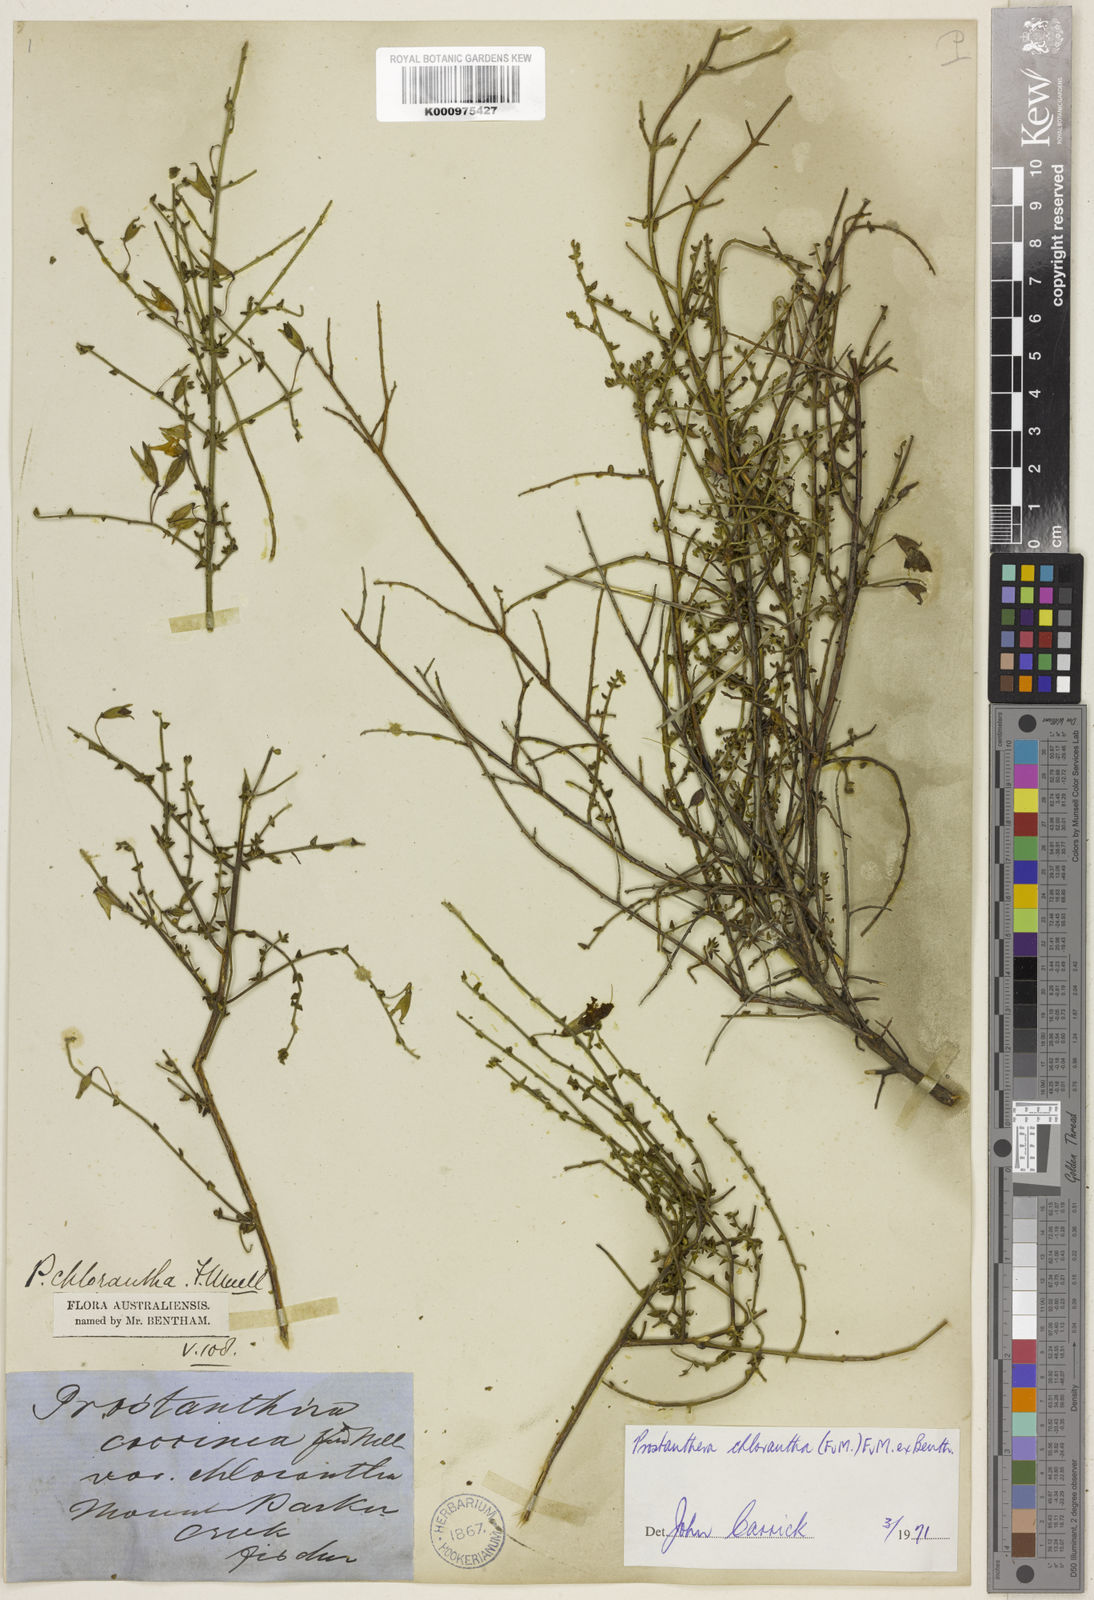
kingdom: Plantae
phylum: Tracheophyta
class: Magnoliopsida
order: Lamiales
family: Lamiaceae
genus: Prostanthera
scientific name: Prostanthera chlorantha
